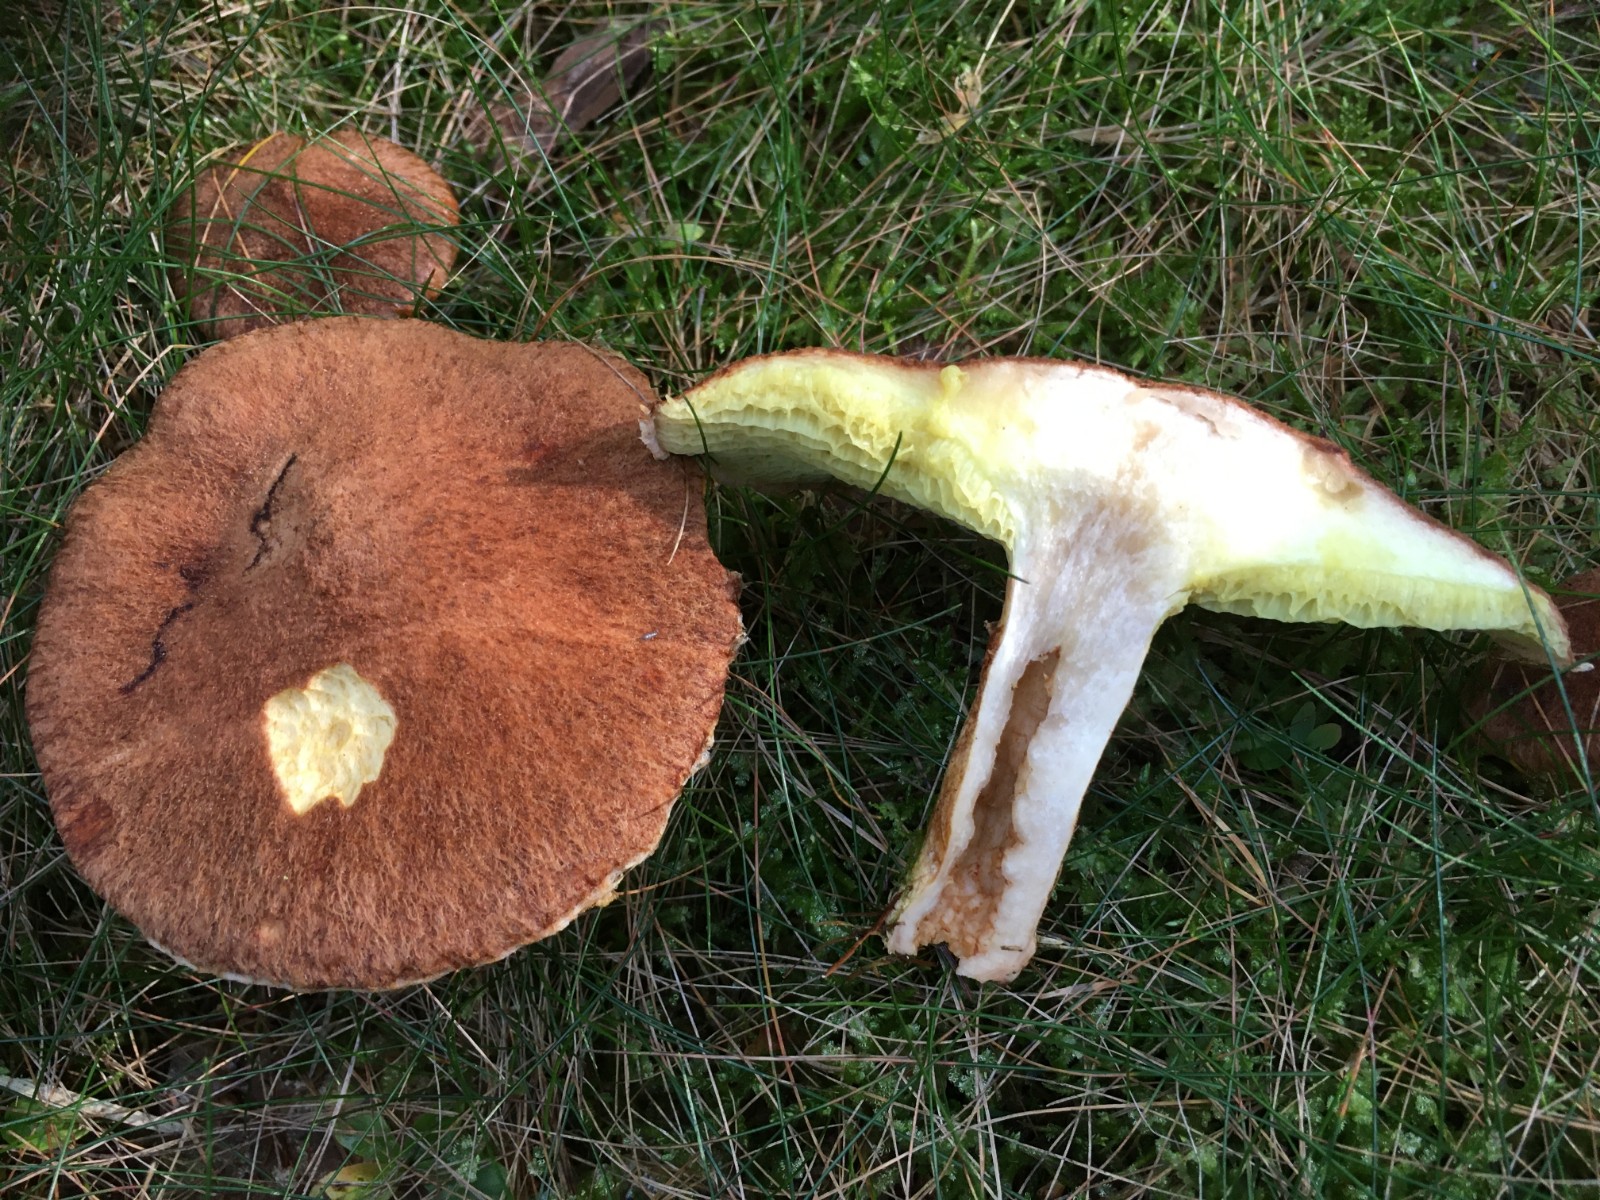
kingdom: Fungi
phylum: Basidiomycota
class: Agaricomycetes
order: Boletales
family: Suillaceae
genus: Suillus
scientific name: Suillus cavipes
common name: hulstokket slimrørhat
